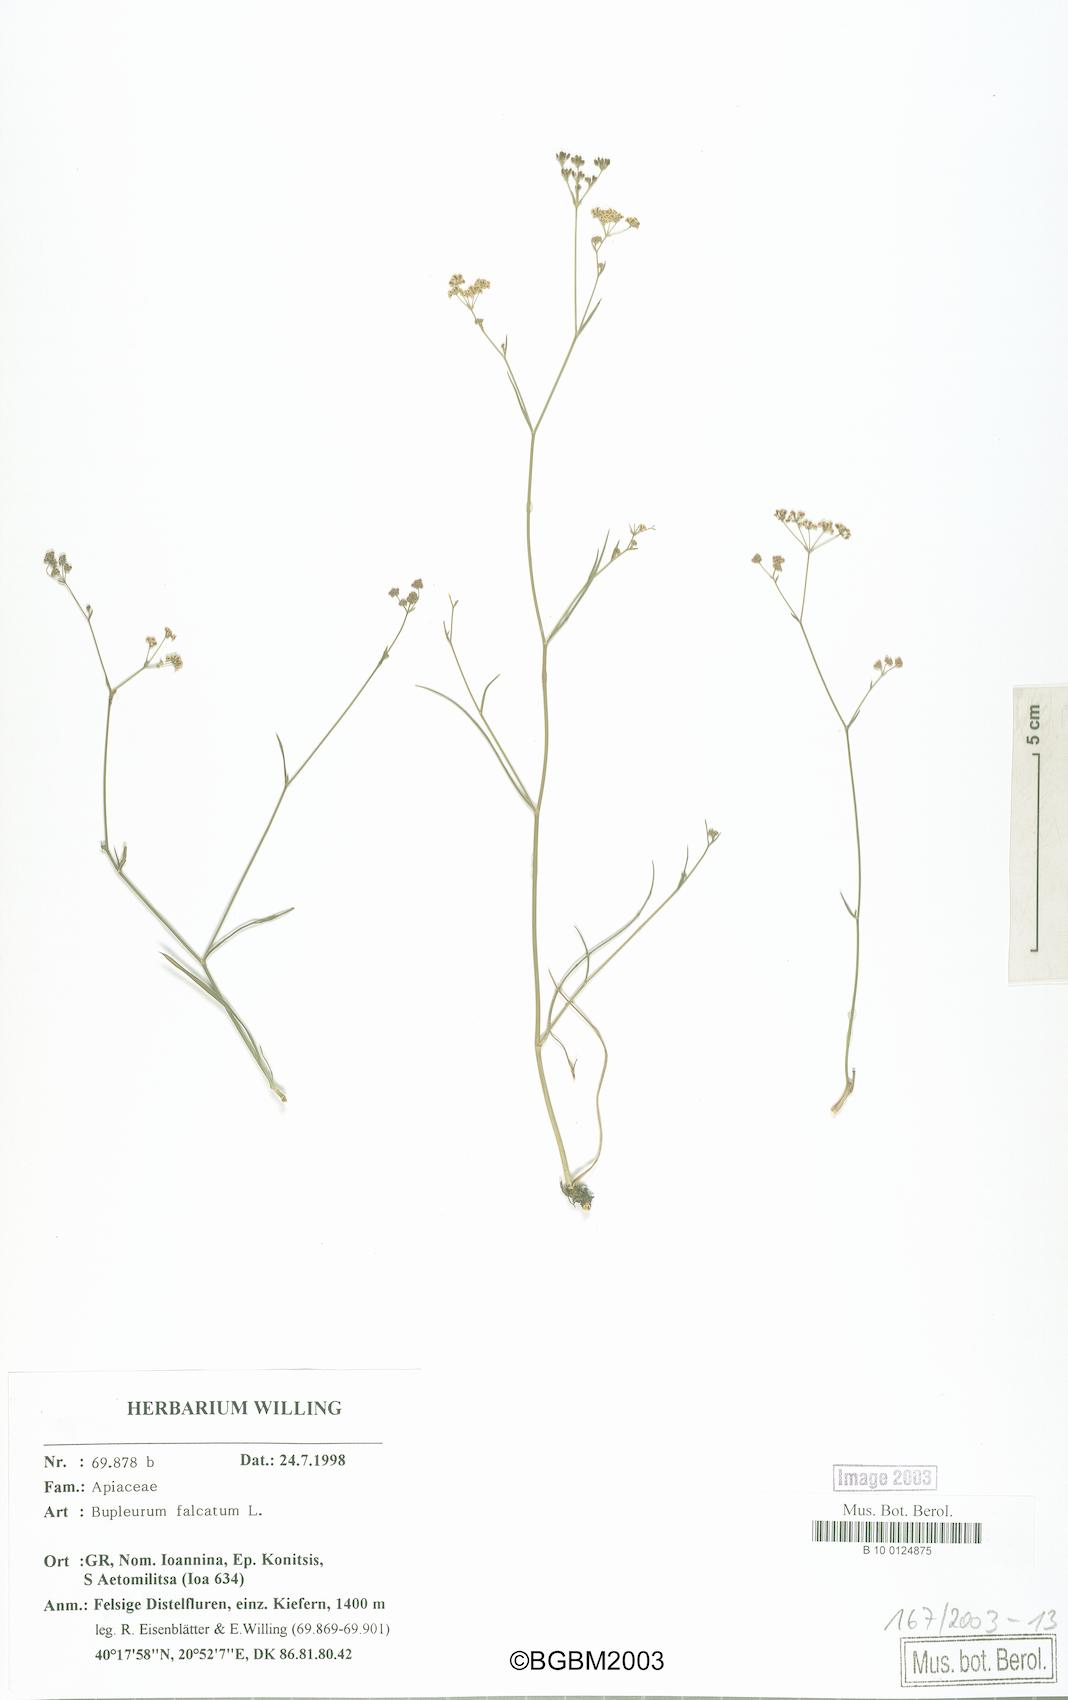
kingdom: Plantae
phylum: Tracheophyta
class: Magnoliopsida
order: Apiales
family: Apiaceae
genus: Bupleurum
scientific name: Bupleurum falcatum
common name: Sickle-leaved hare's-ear
